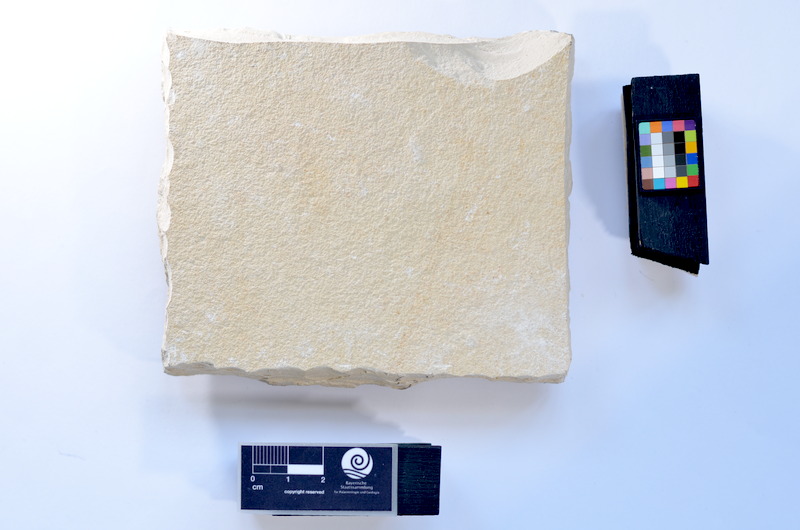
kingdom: Animalia
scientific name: Animalia
